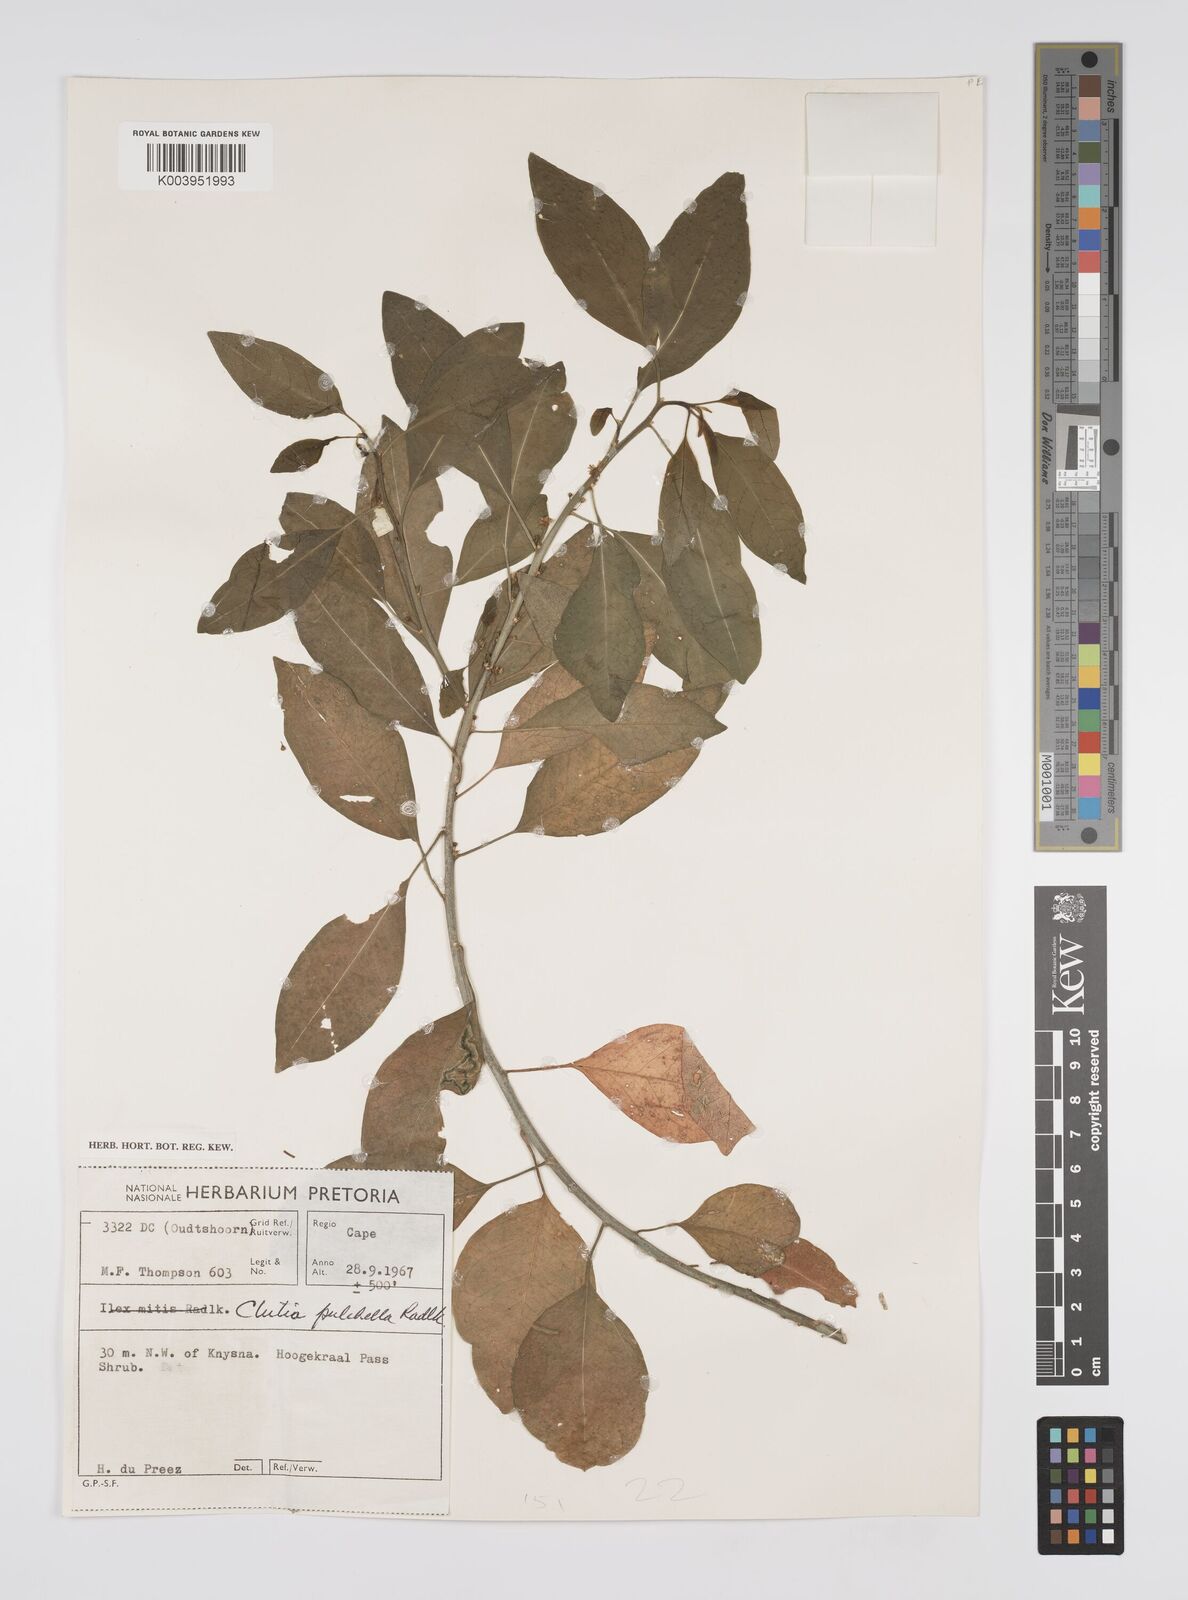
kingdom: Plantae
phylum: Tracheophyta
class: Magnoliopsida
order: Malpighiales
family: Peraceae
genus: Clutia
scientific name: Clutia pulchella
